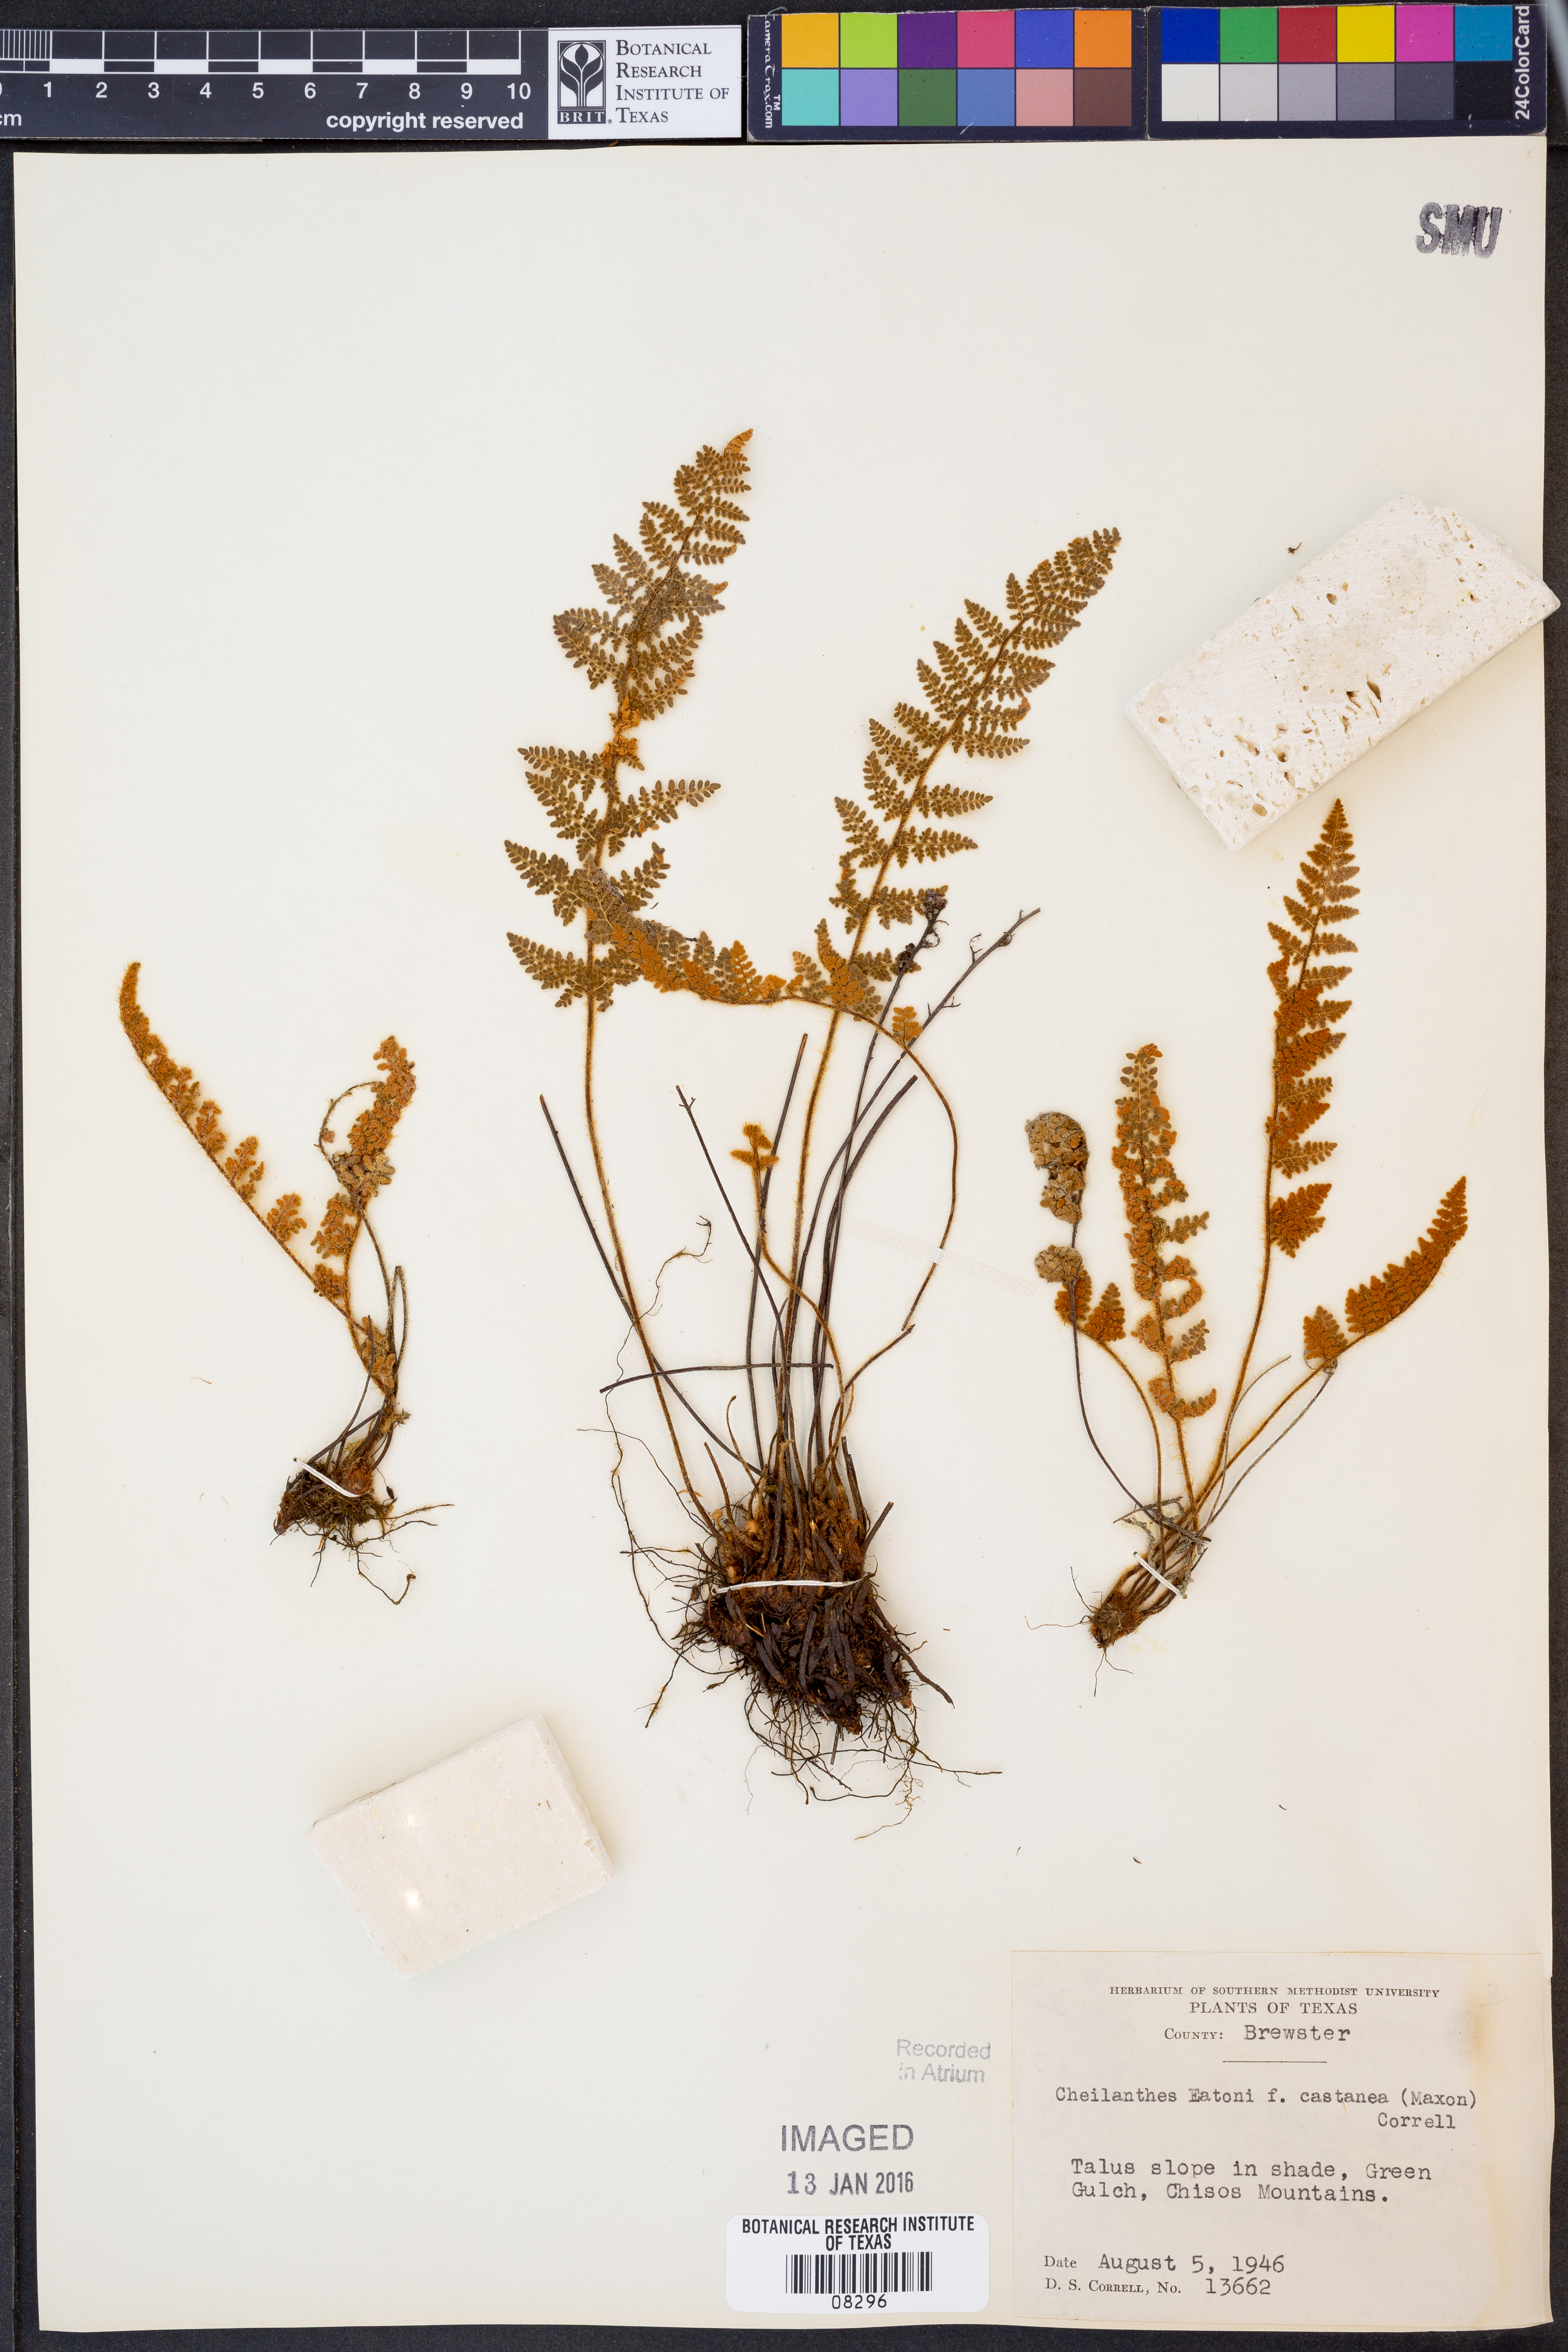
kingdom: Plantae
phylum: Tracheophyta
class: Polypodiopsida
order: Polypodiales
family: Pteridaceae
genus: Myriopteris
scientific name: Myriopteris rufa
